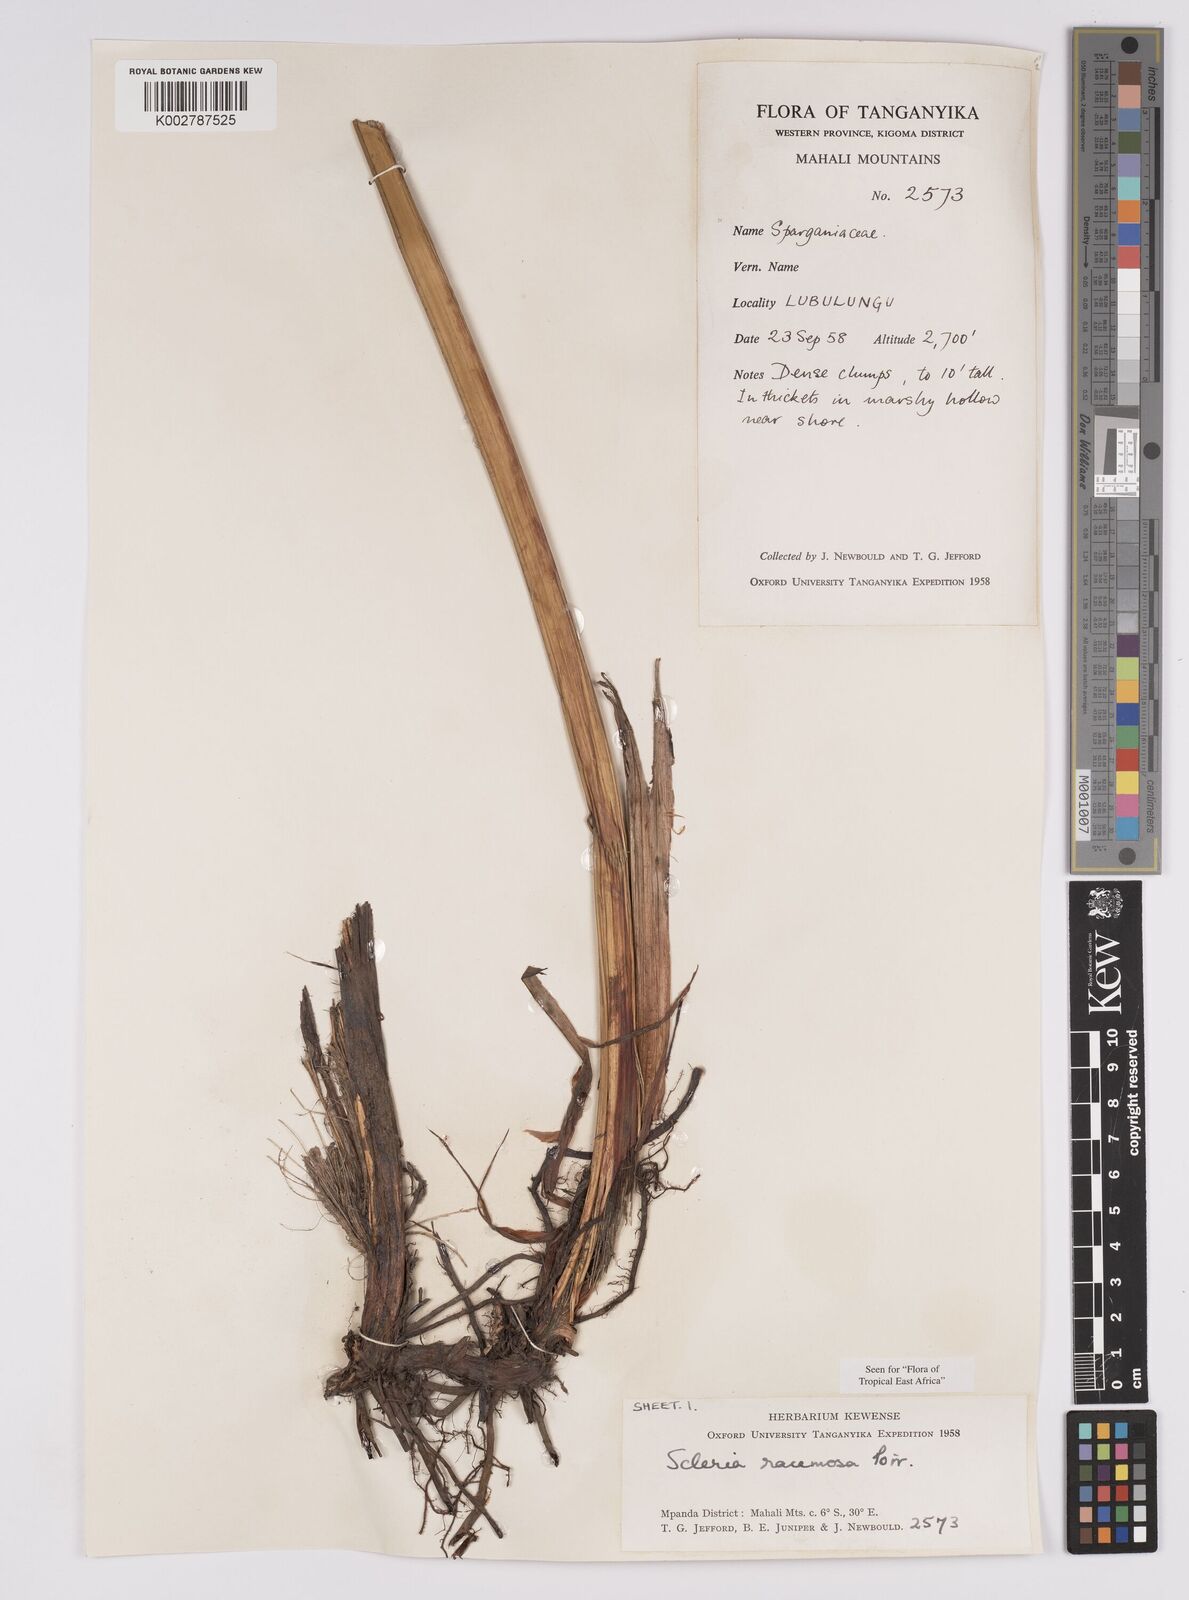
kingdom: Plantae
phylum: Tracheophyta
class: Liliopsida
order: Poales
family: Cyperaceae
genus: Scleria
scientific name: Scleria racemosa
